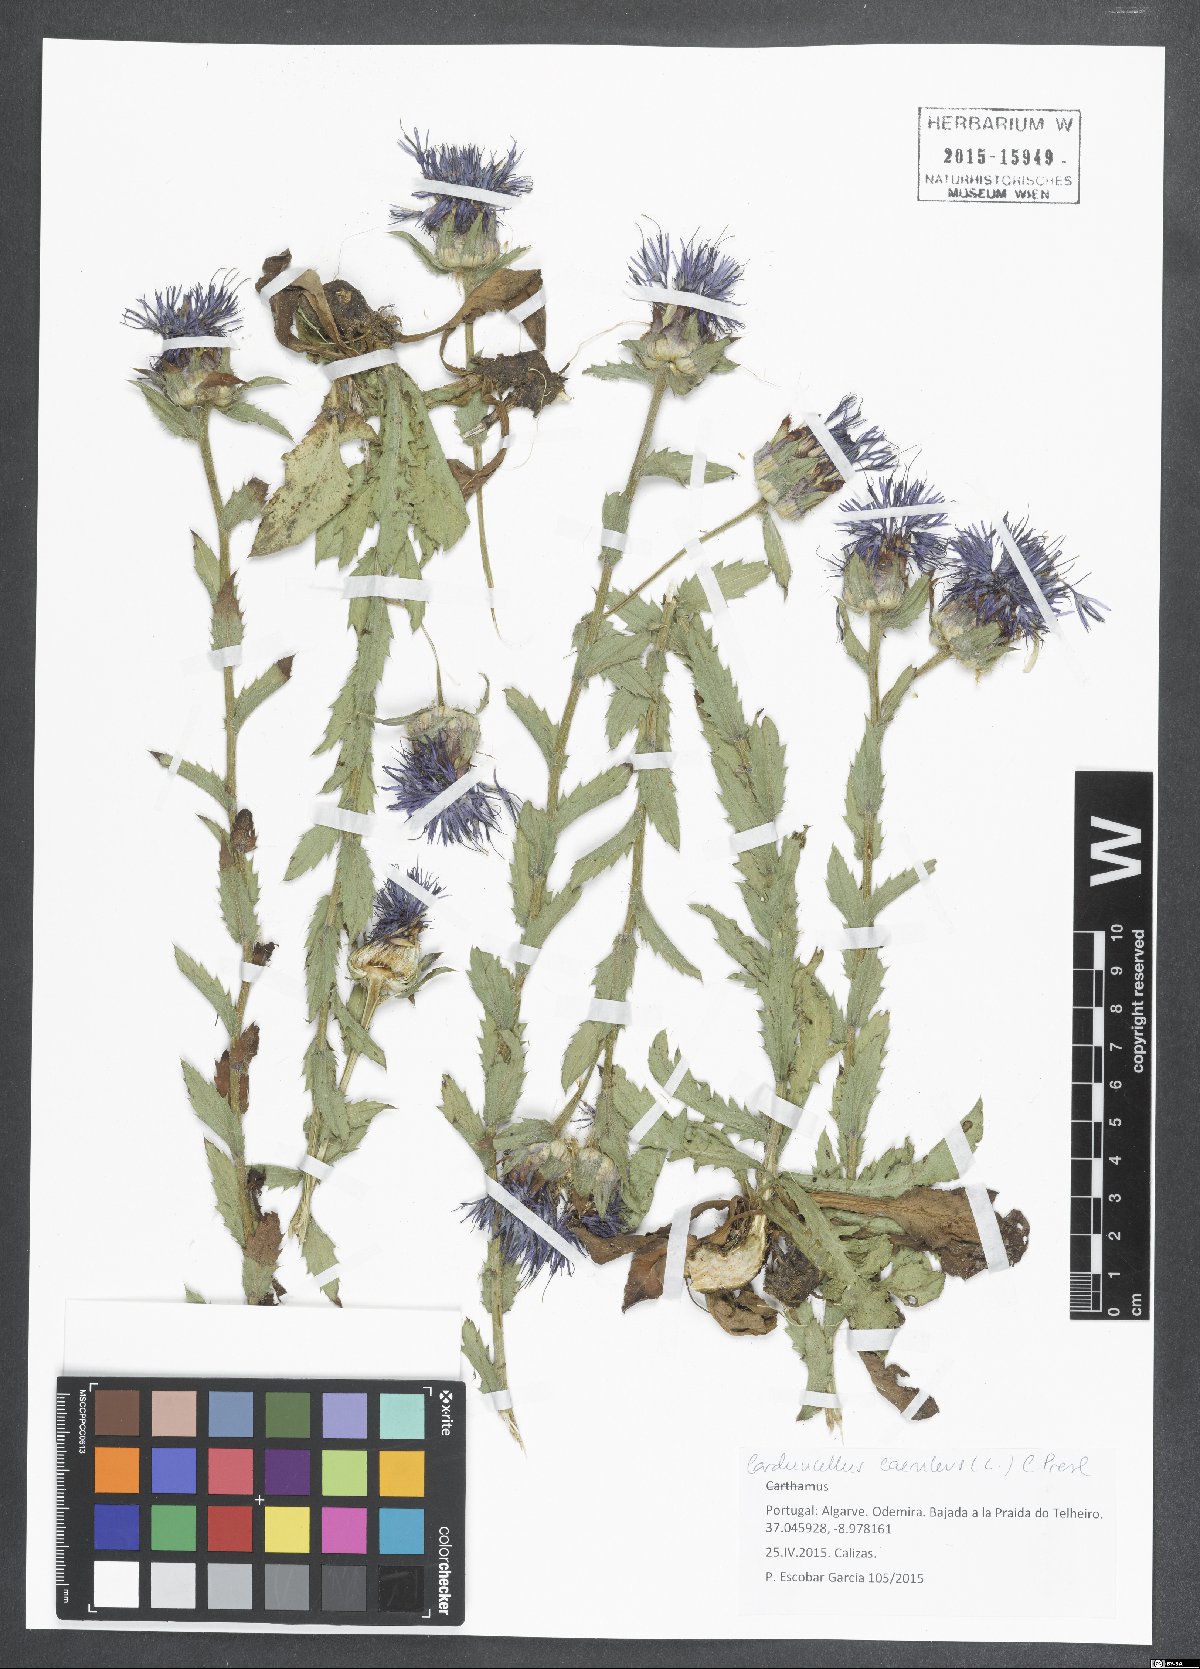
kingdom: Plantae
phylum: Tracheophyta
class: Magnoliopsida
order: Asterales
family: Asteraceae
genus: Carduncellus
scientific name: Carduncellus caeruleus
